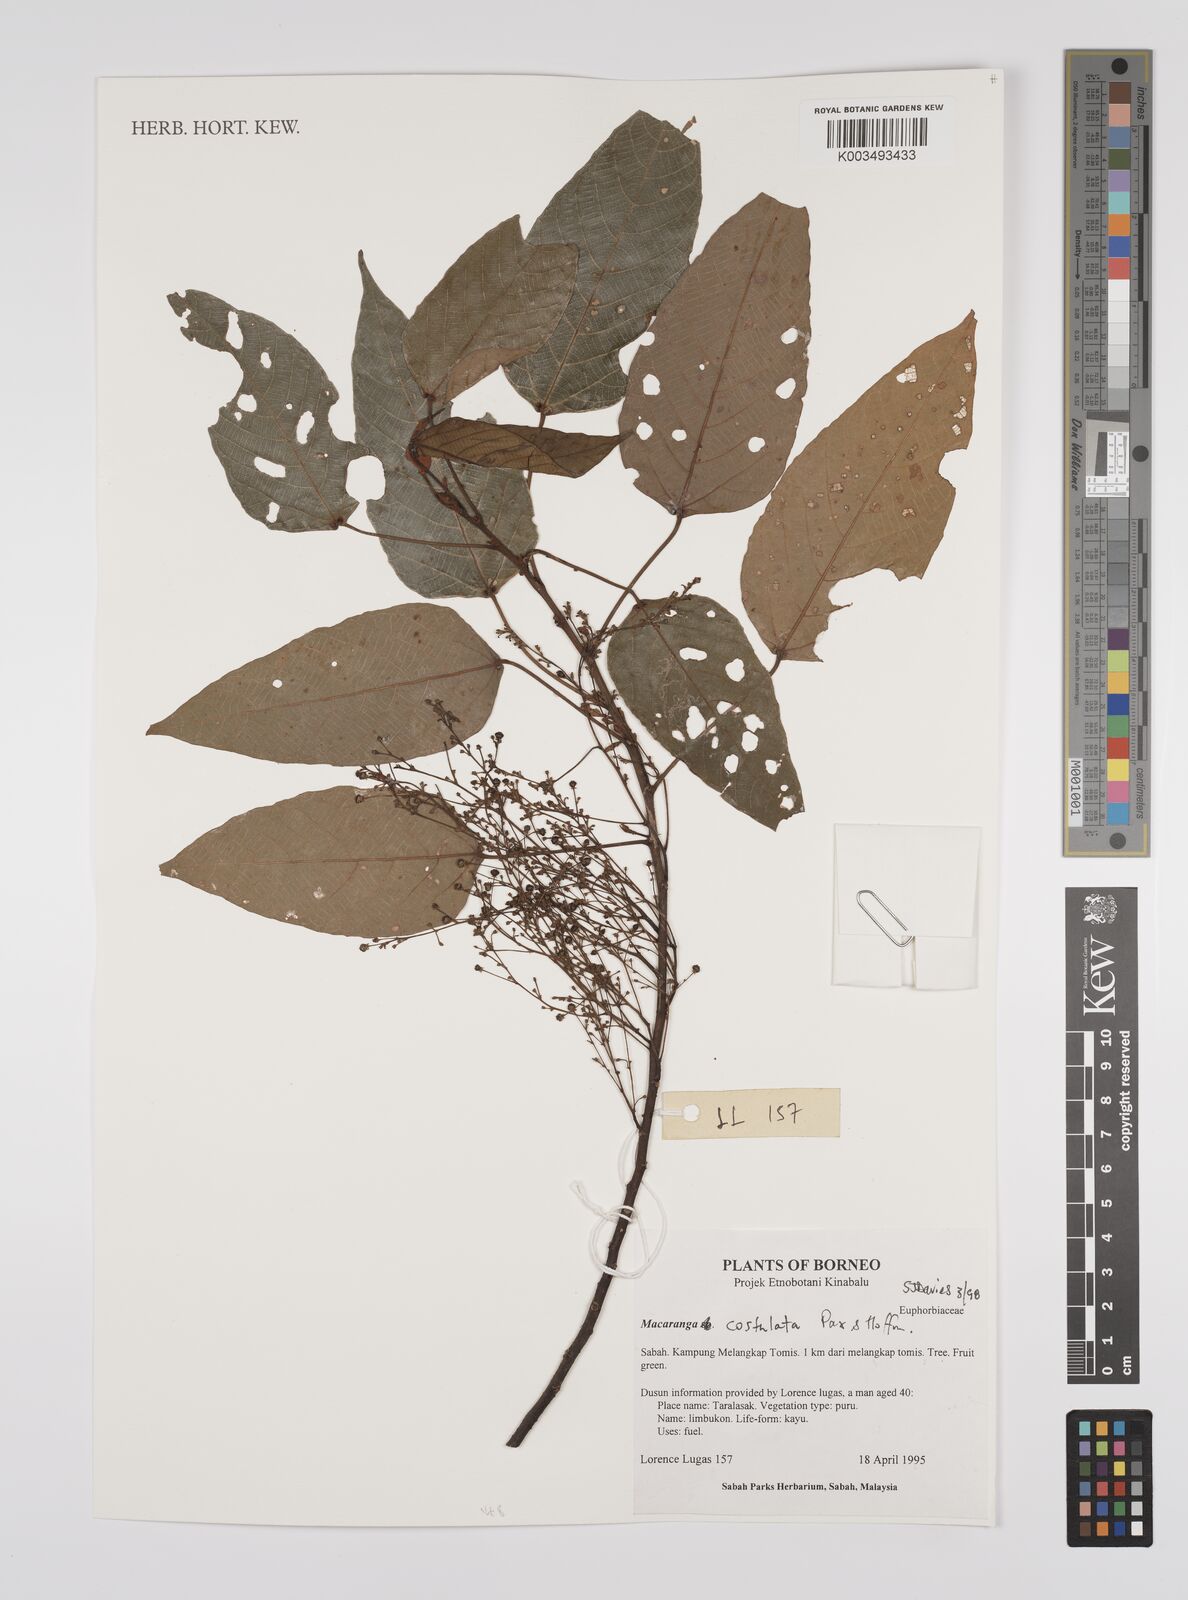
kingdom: Plantae
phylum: Tracheophyta
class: Magnoliopsida
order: Malpighiales
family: Euphorbiaceae
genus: Macaranga
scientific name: Macaranga costulata
